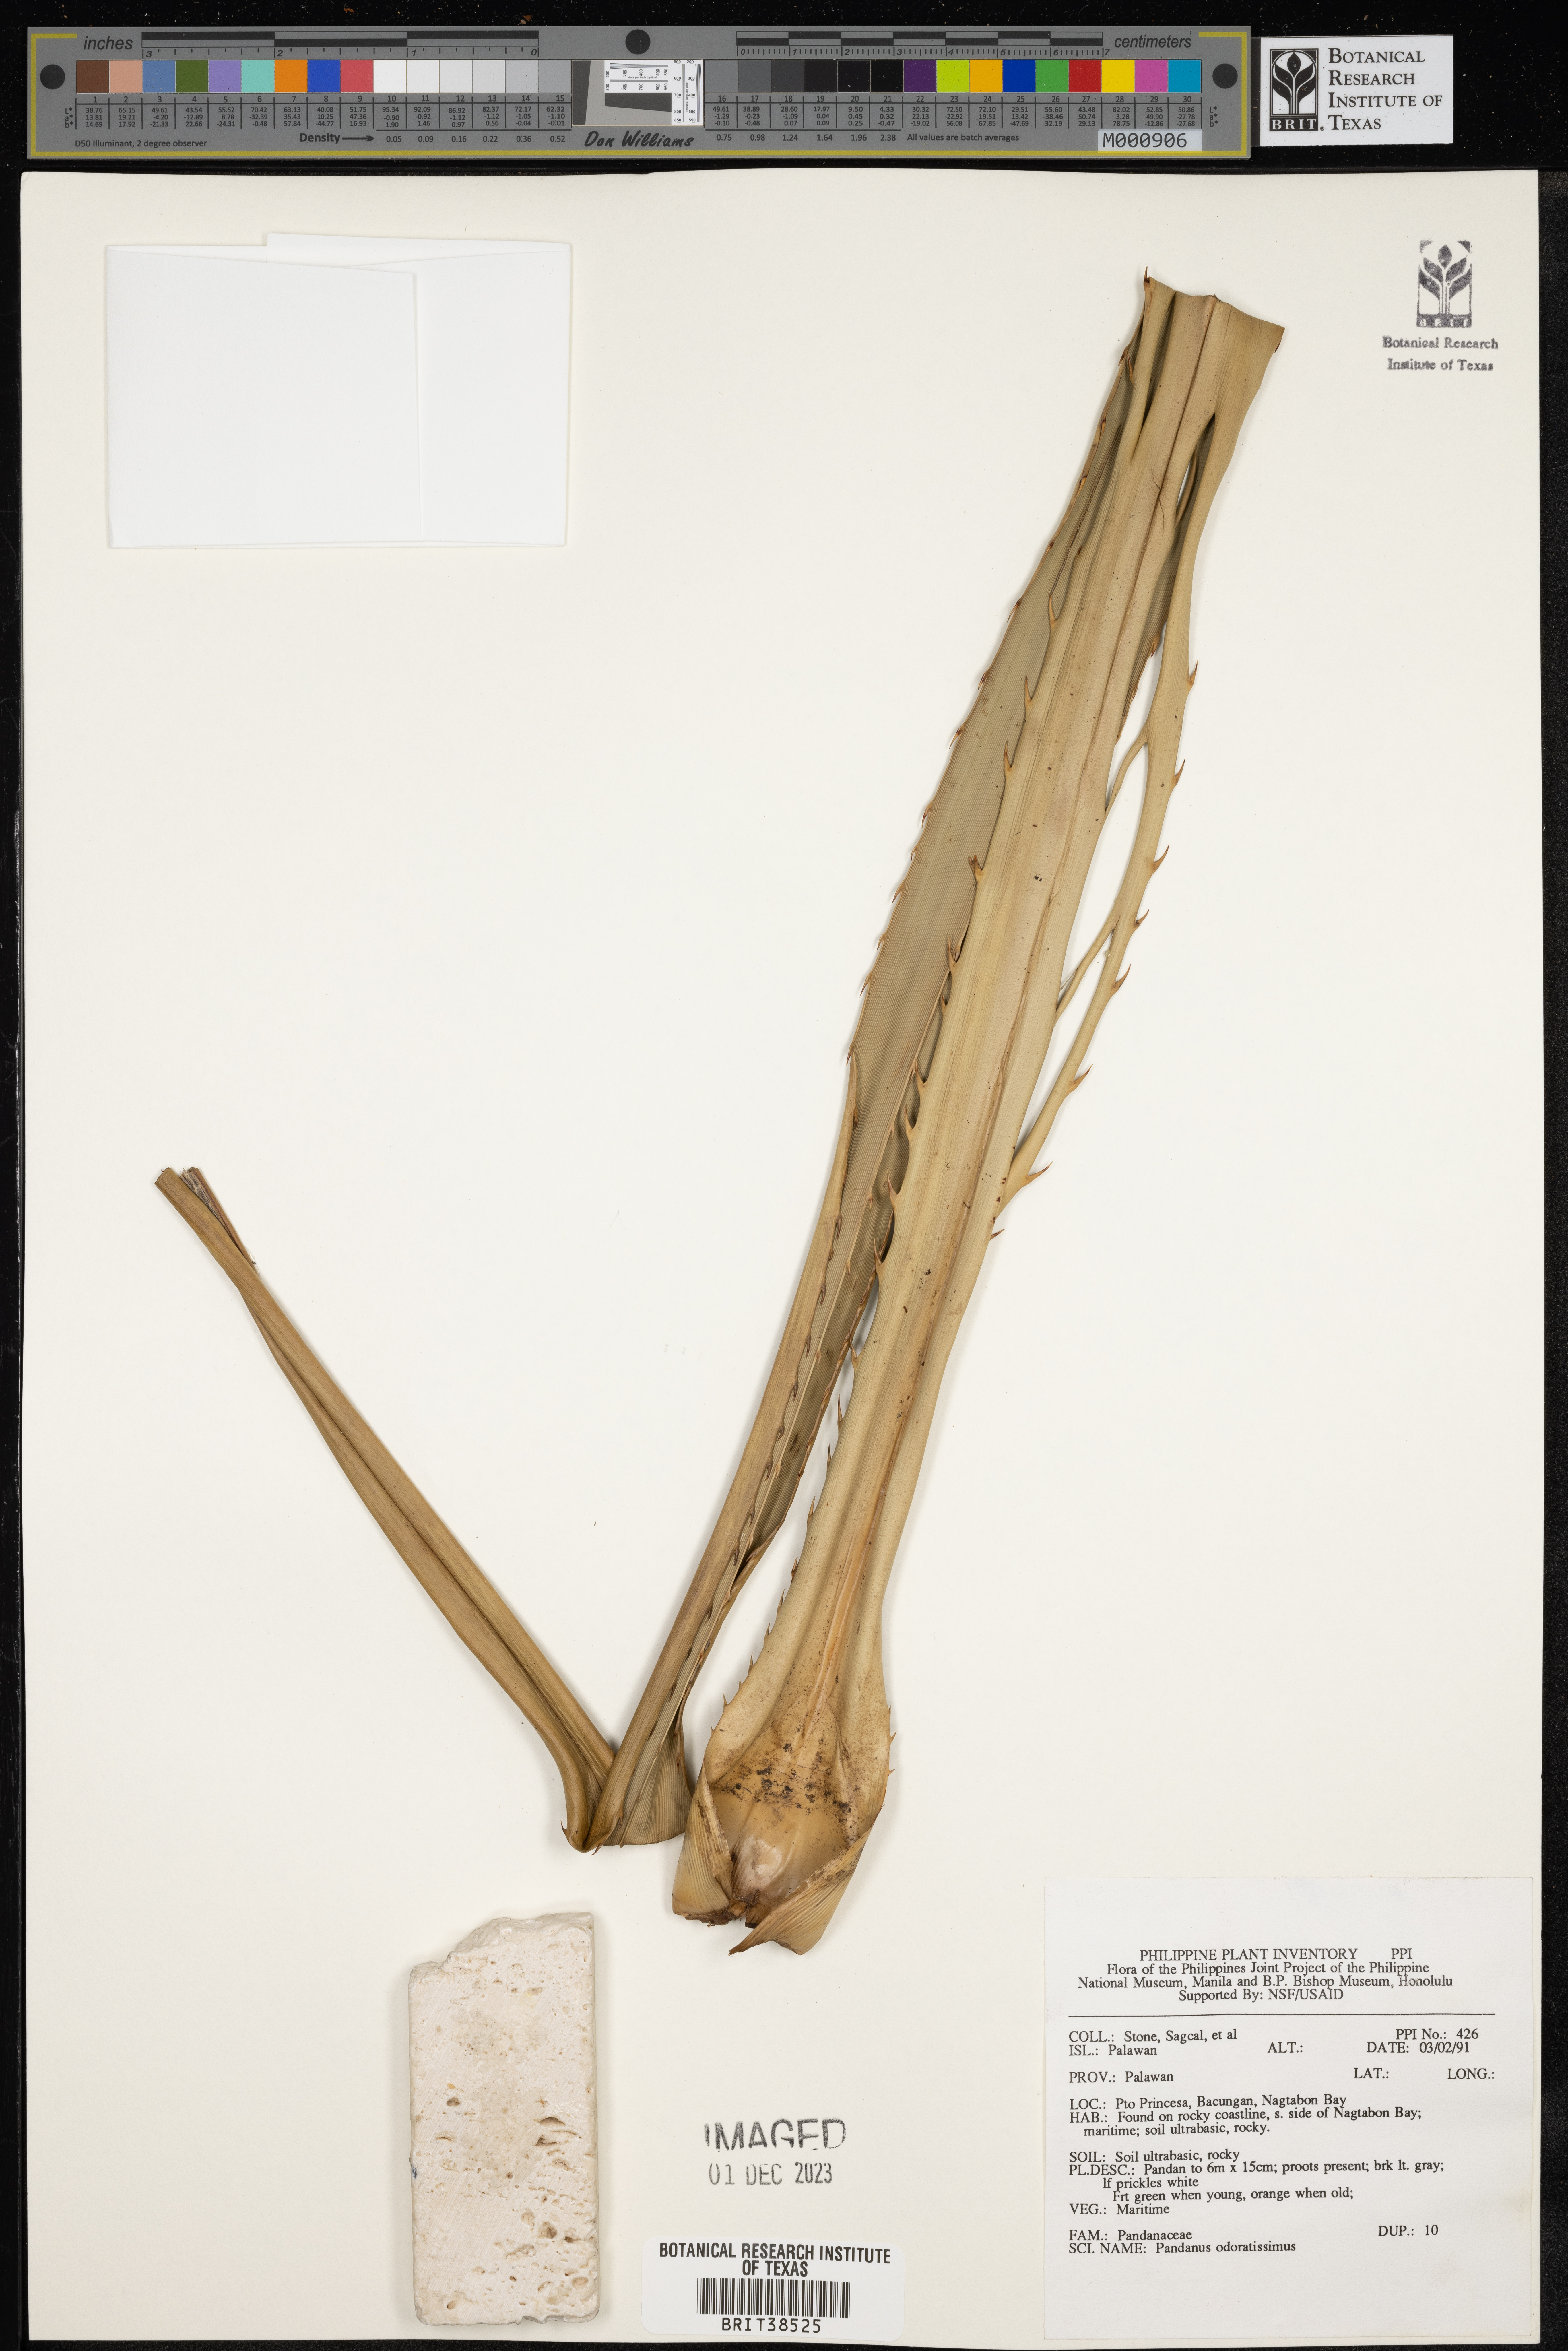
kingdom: Plantae
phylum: Tracheophyta
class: Liliopsida
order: Pandanales
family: Pandanaceae
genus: Pandanus
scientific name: Pandanus odoratissimus
